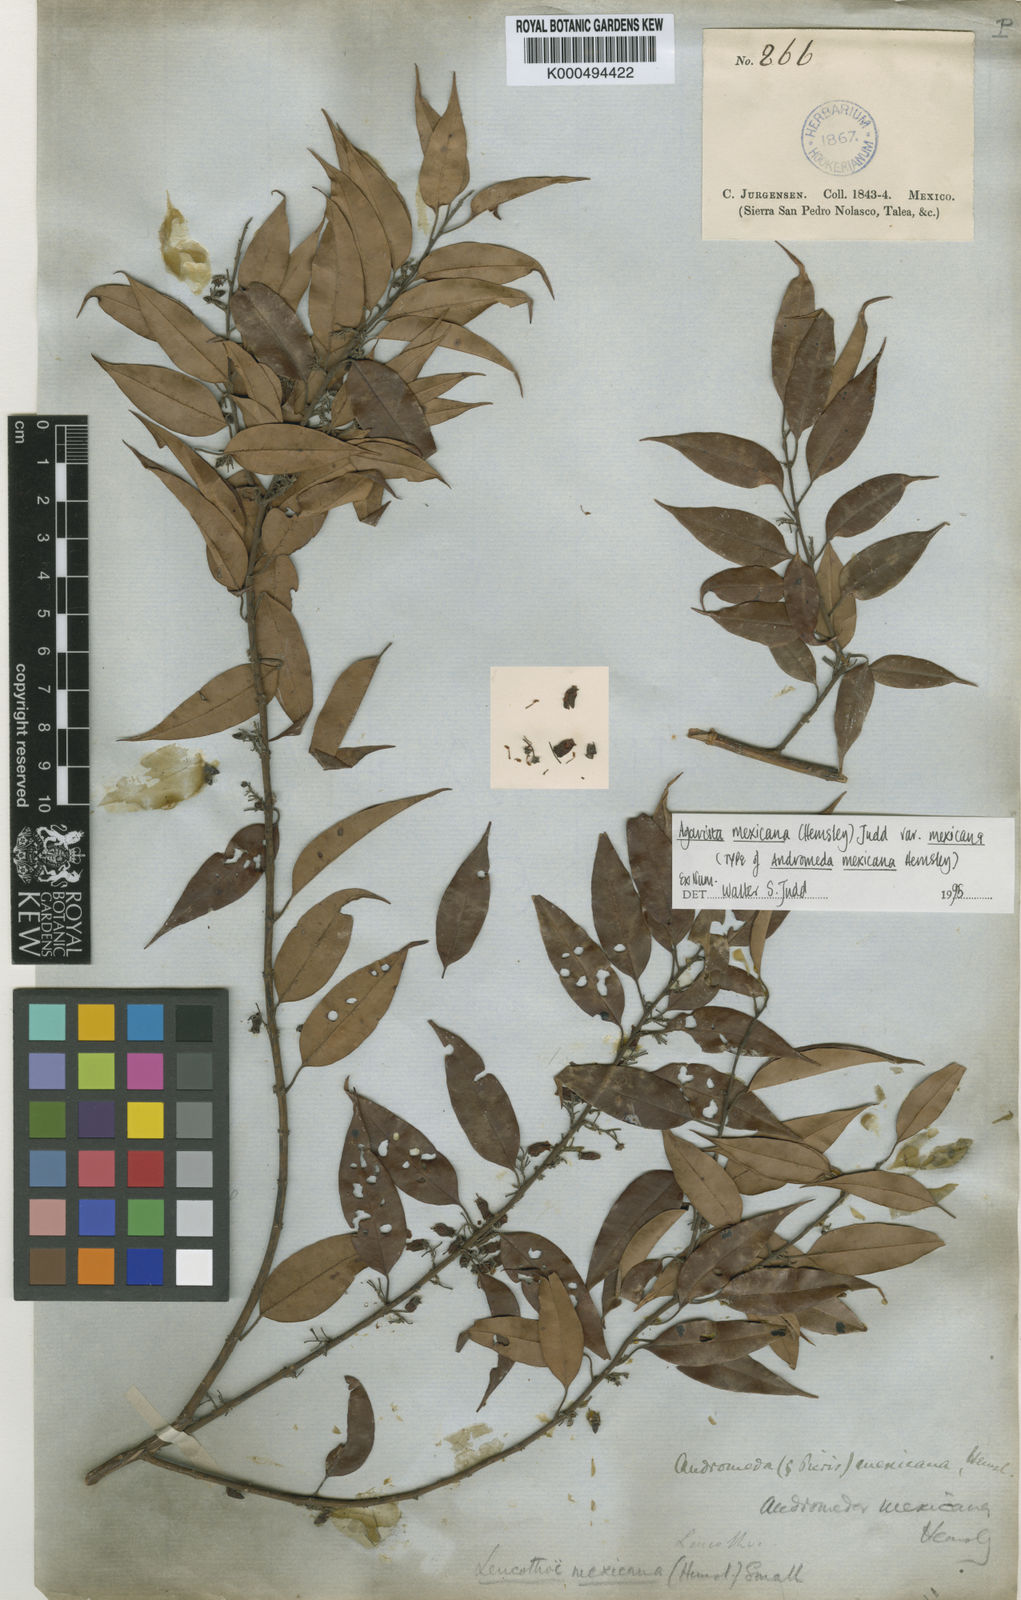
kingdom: Plantae
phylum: Tracheophyta
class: Magnoliopsida
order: Ericales
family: Ericaceae
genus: Agarista
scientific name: Agarista mexicana
